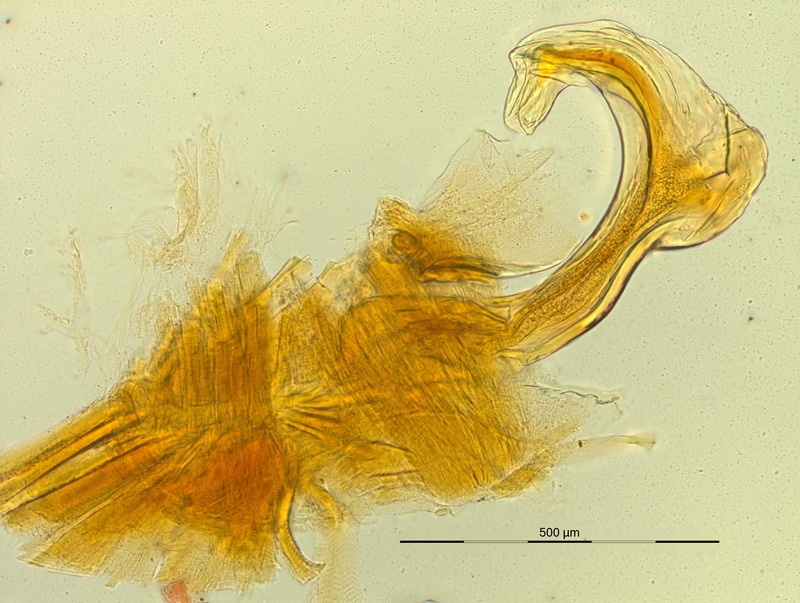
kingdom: Animalia
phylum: Arthropoda
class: Diplopoda
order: Chordeumatida
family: Craspedosomatidae
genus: Pyrgocyphosoma
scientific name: Pyrgocyphosoma savonense
